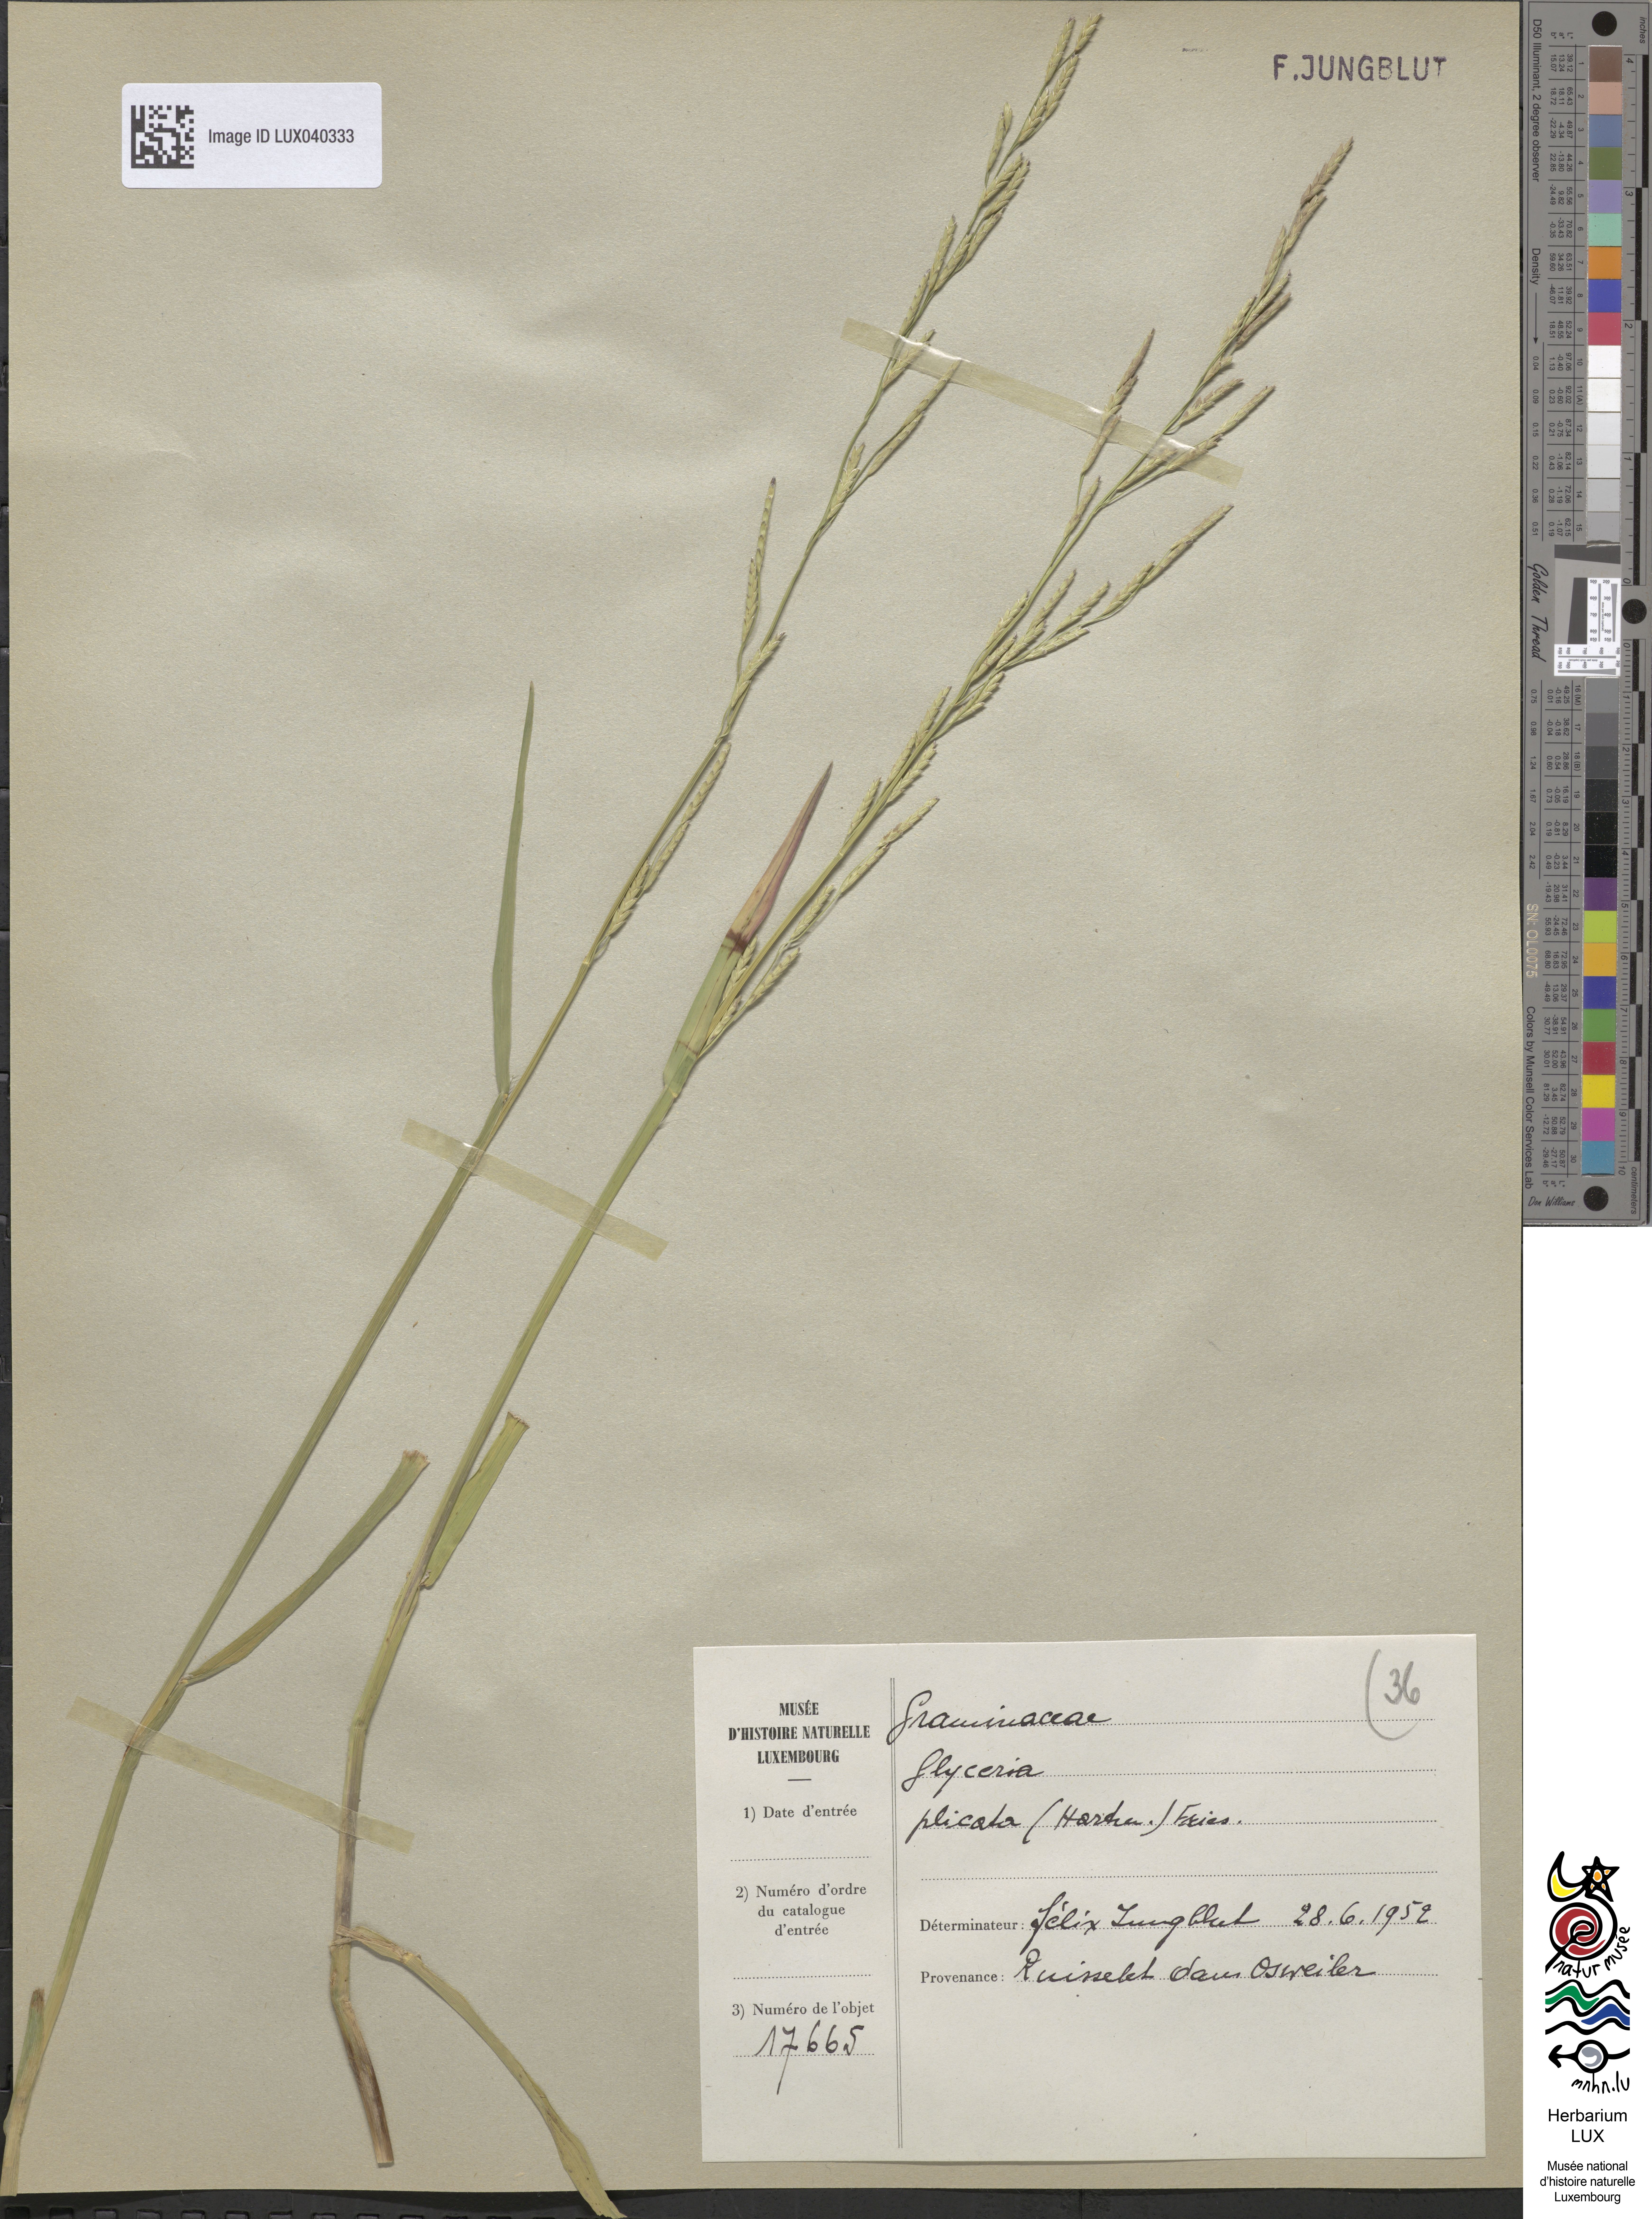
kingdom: Plantae
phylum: Tracheophyta
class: Liliopsida
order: Poales
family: Poaceae
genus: Glyceria
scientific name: Glyceria notata
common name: Plicate sweet-grass
